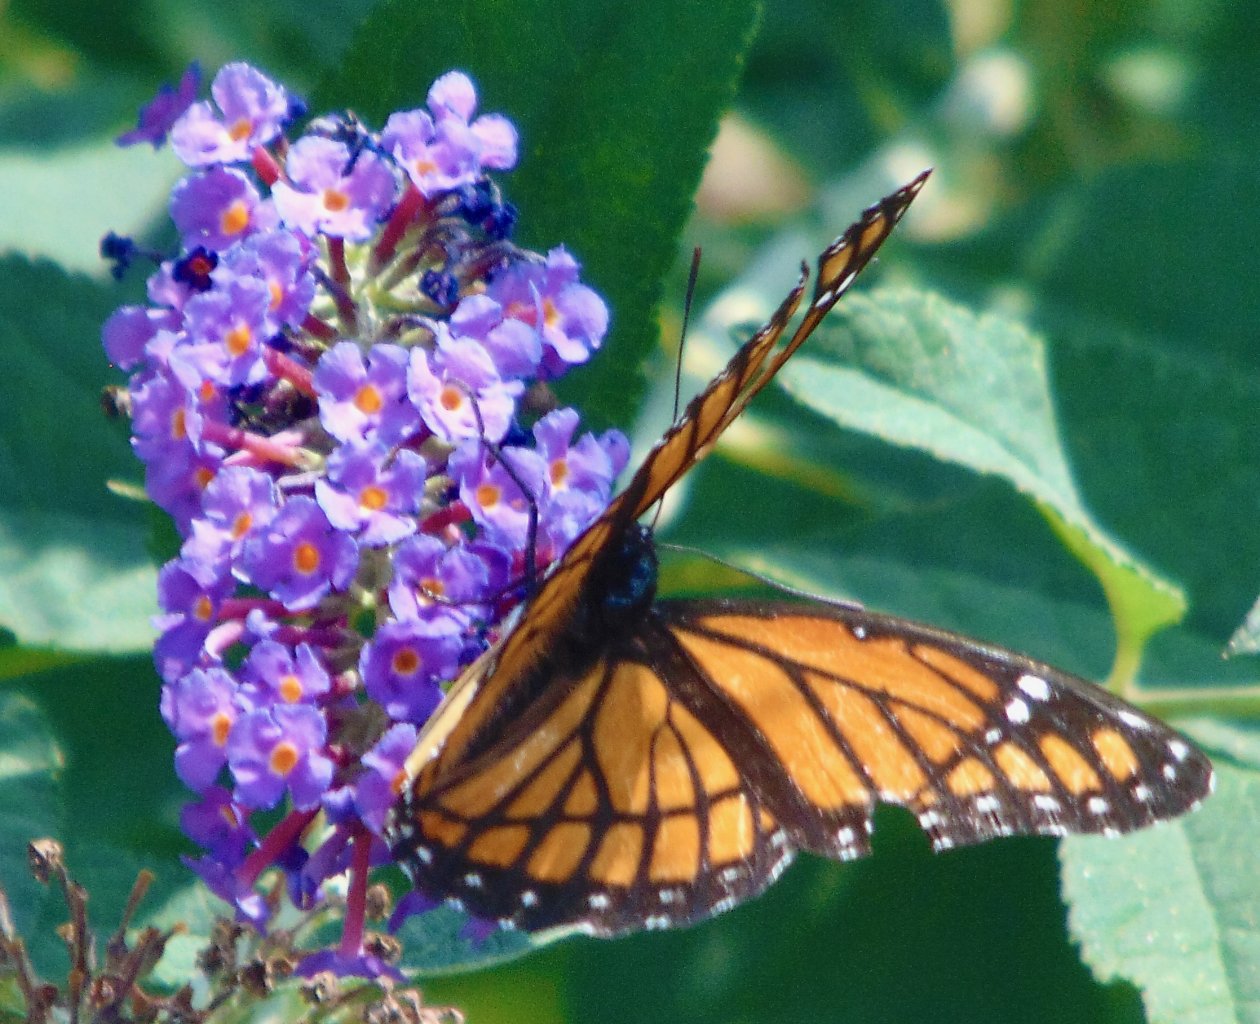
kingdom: Animalia
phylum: Arthropoda
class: Insecta
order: Lepidoptera
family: Nymphalidae
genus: Limenitis
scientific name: Limenitis archippus
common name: Viceroy
